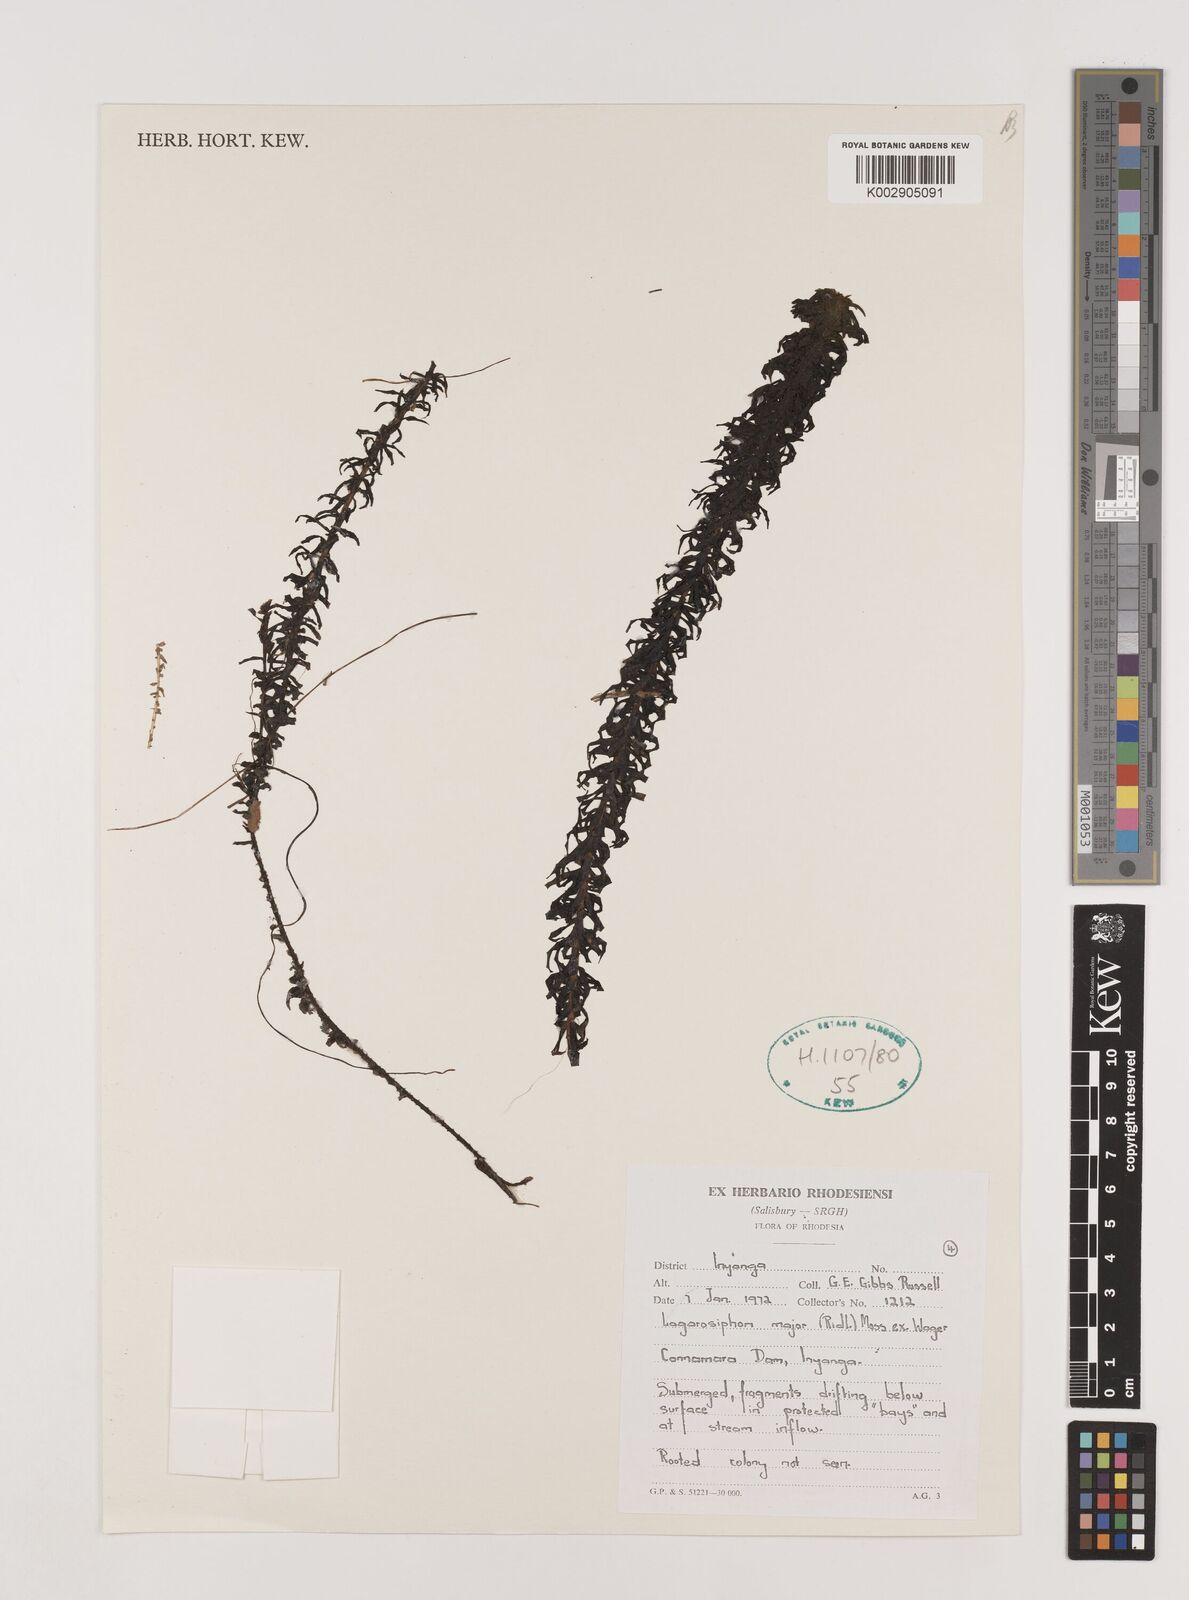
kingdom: Plantae
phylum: Tracheophyta
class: Liliopsida
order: Alismatales
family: Hydrocharitaceae
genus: Lagarosiphon
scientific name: Lagarosiphon major
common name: Curly waterweed
